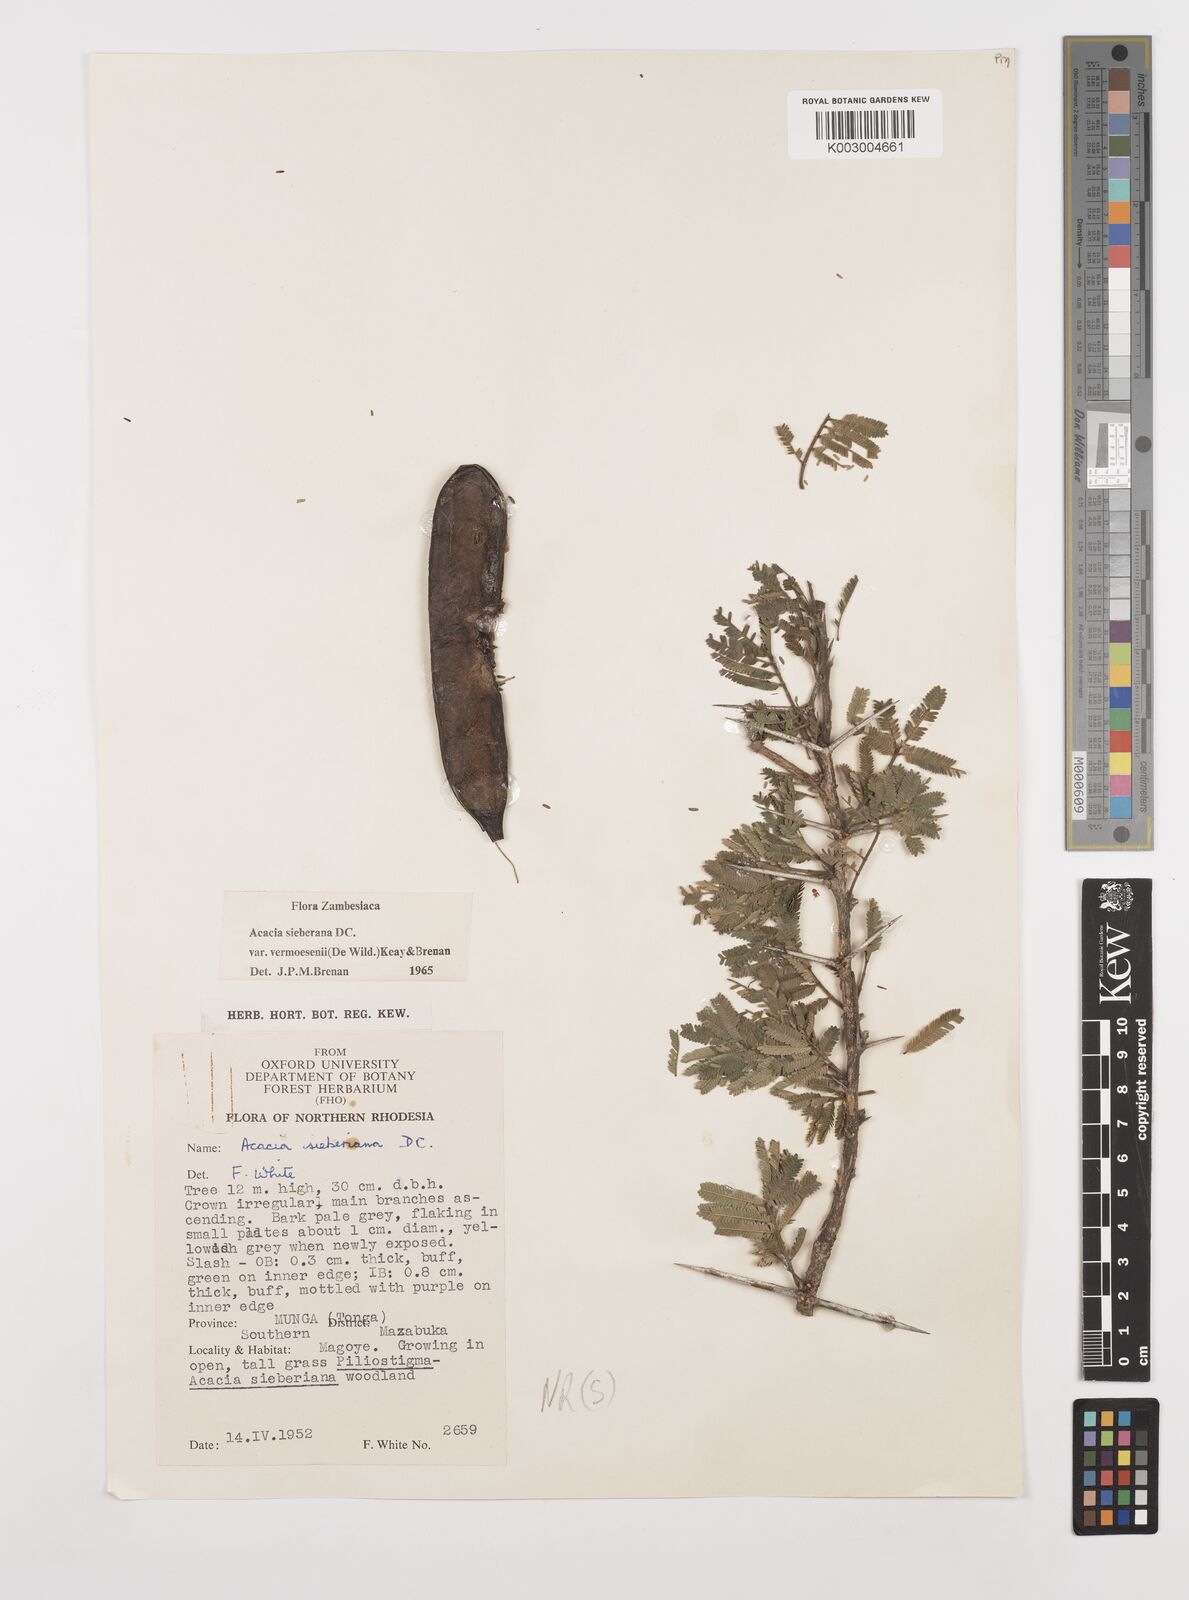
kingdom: Plantae
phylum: Tracheophyta
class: Magnoliopsida
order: Fabales
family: Fabaceae
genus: Vachellia
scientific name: Vachellia sieberiana
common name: Flat-topped thorn
